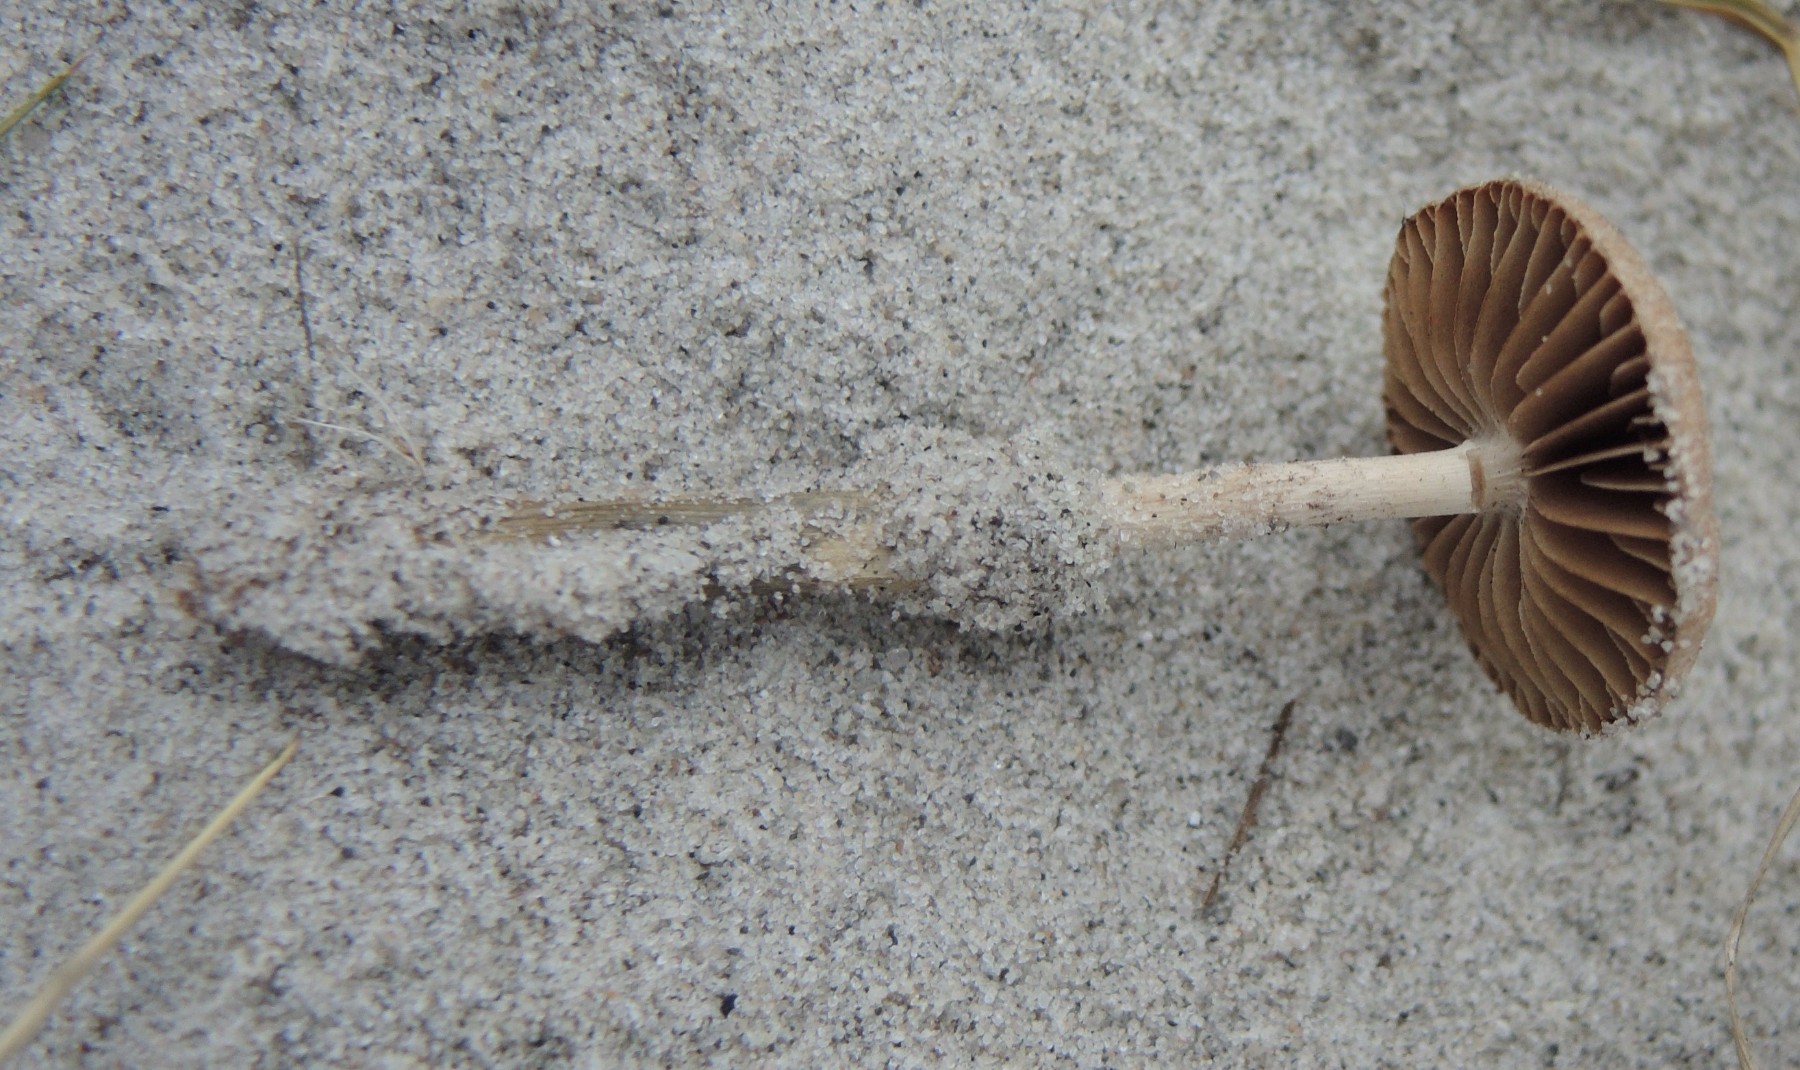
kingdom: Fungi
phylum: Basidiomycota
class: Agaricomycetes
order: Agaricales
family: Psathyrellaceae
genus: Psathyrella
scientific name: Psathyrella ammophila
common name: klit-mørkhat
